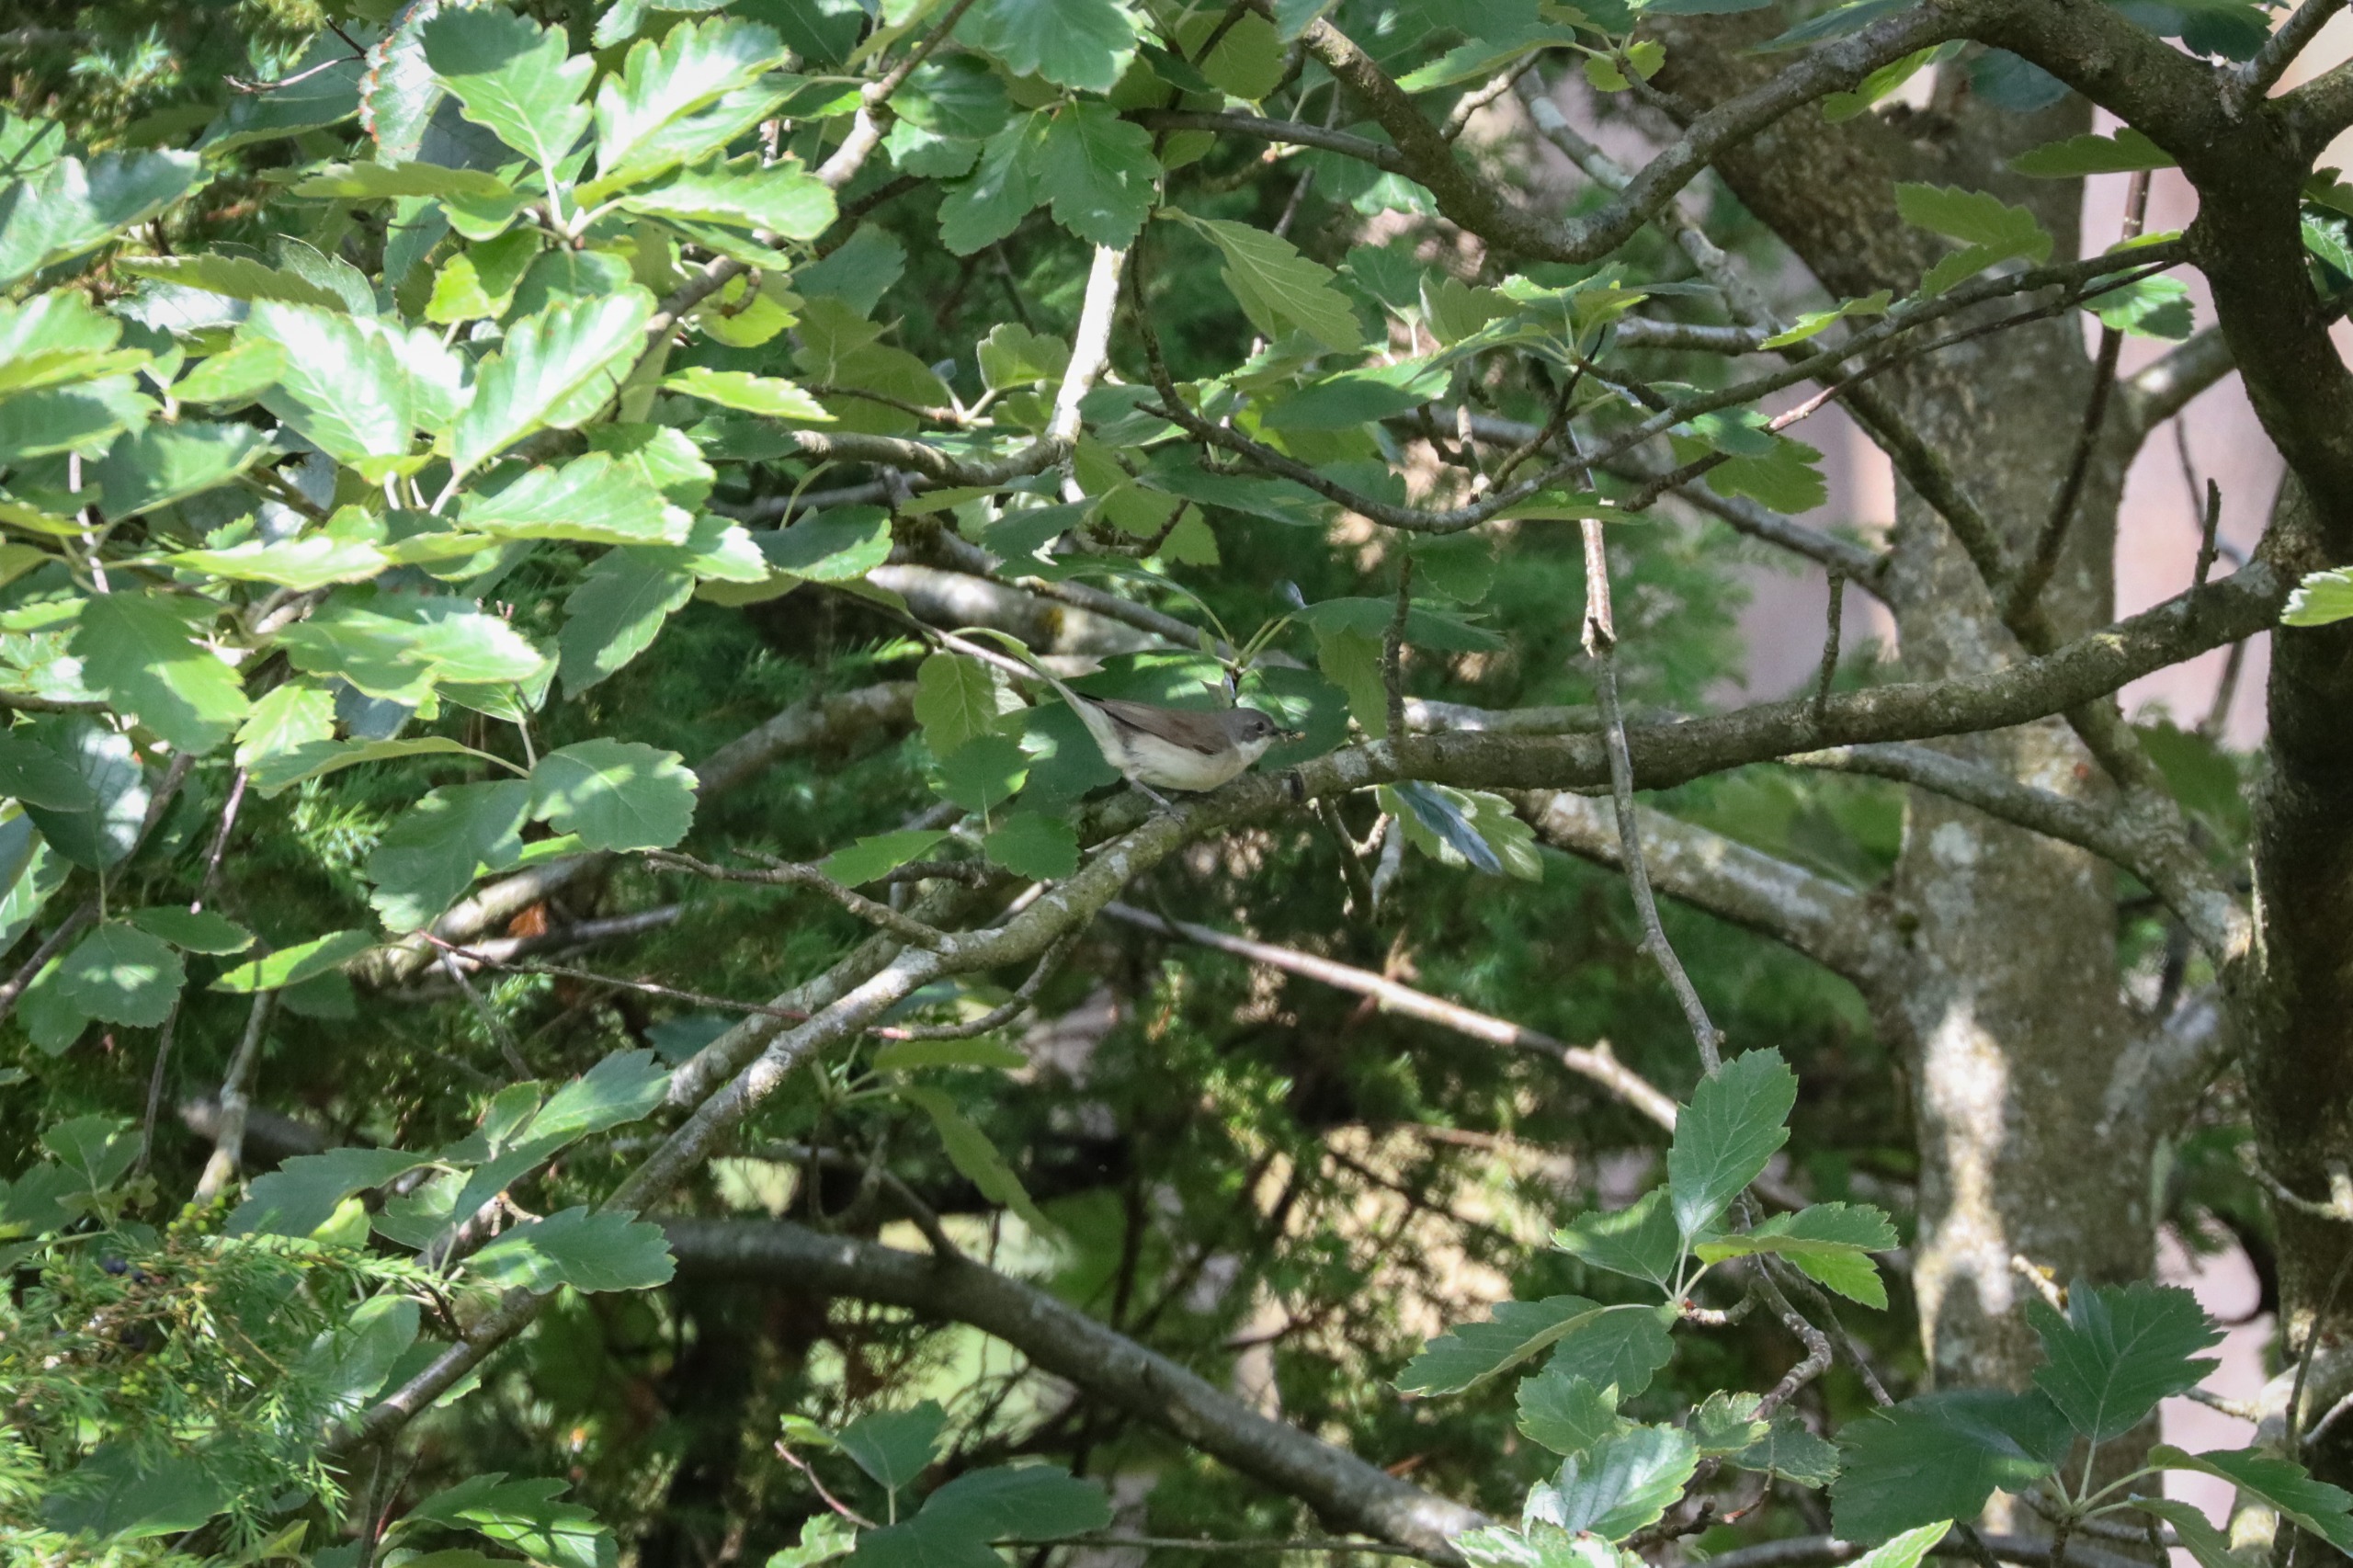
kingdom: Animalia
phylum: Chordata
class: Aves
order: Passeriformes
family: Sylviidae
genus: Sylvia
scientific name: Sylvia curruca
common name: Gærdesanger
